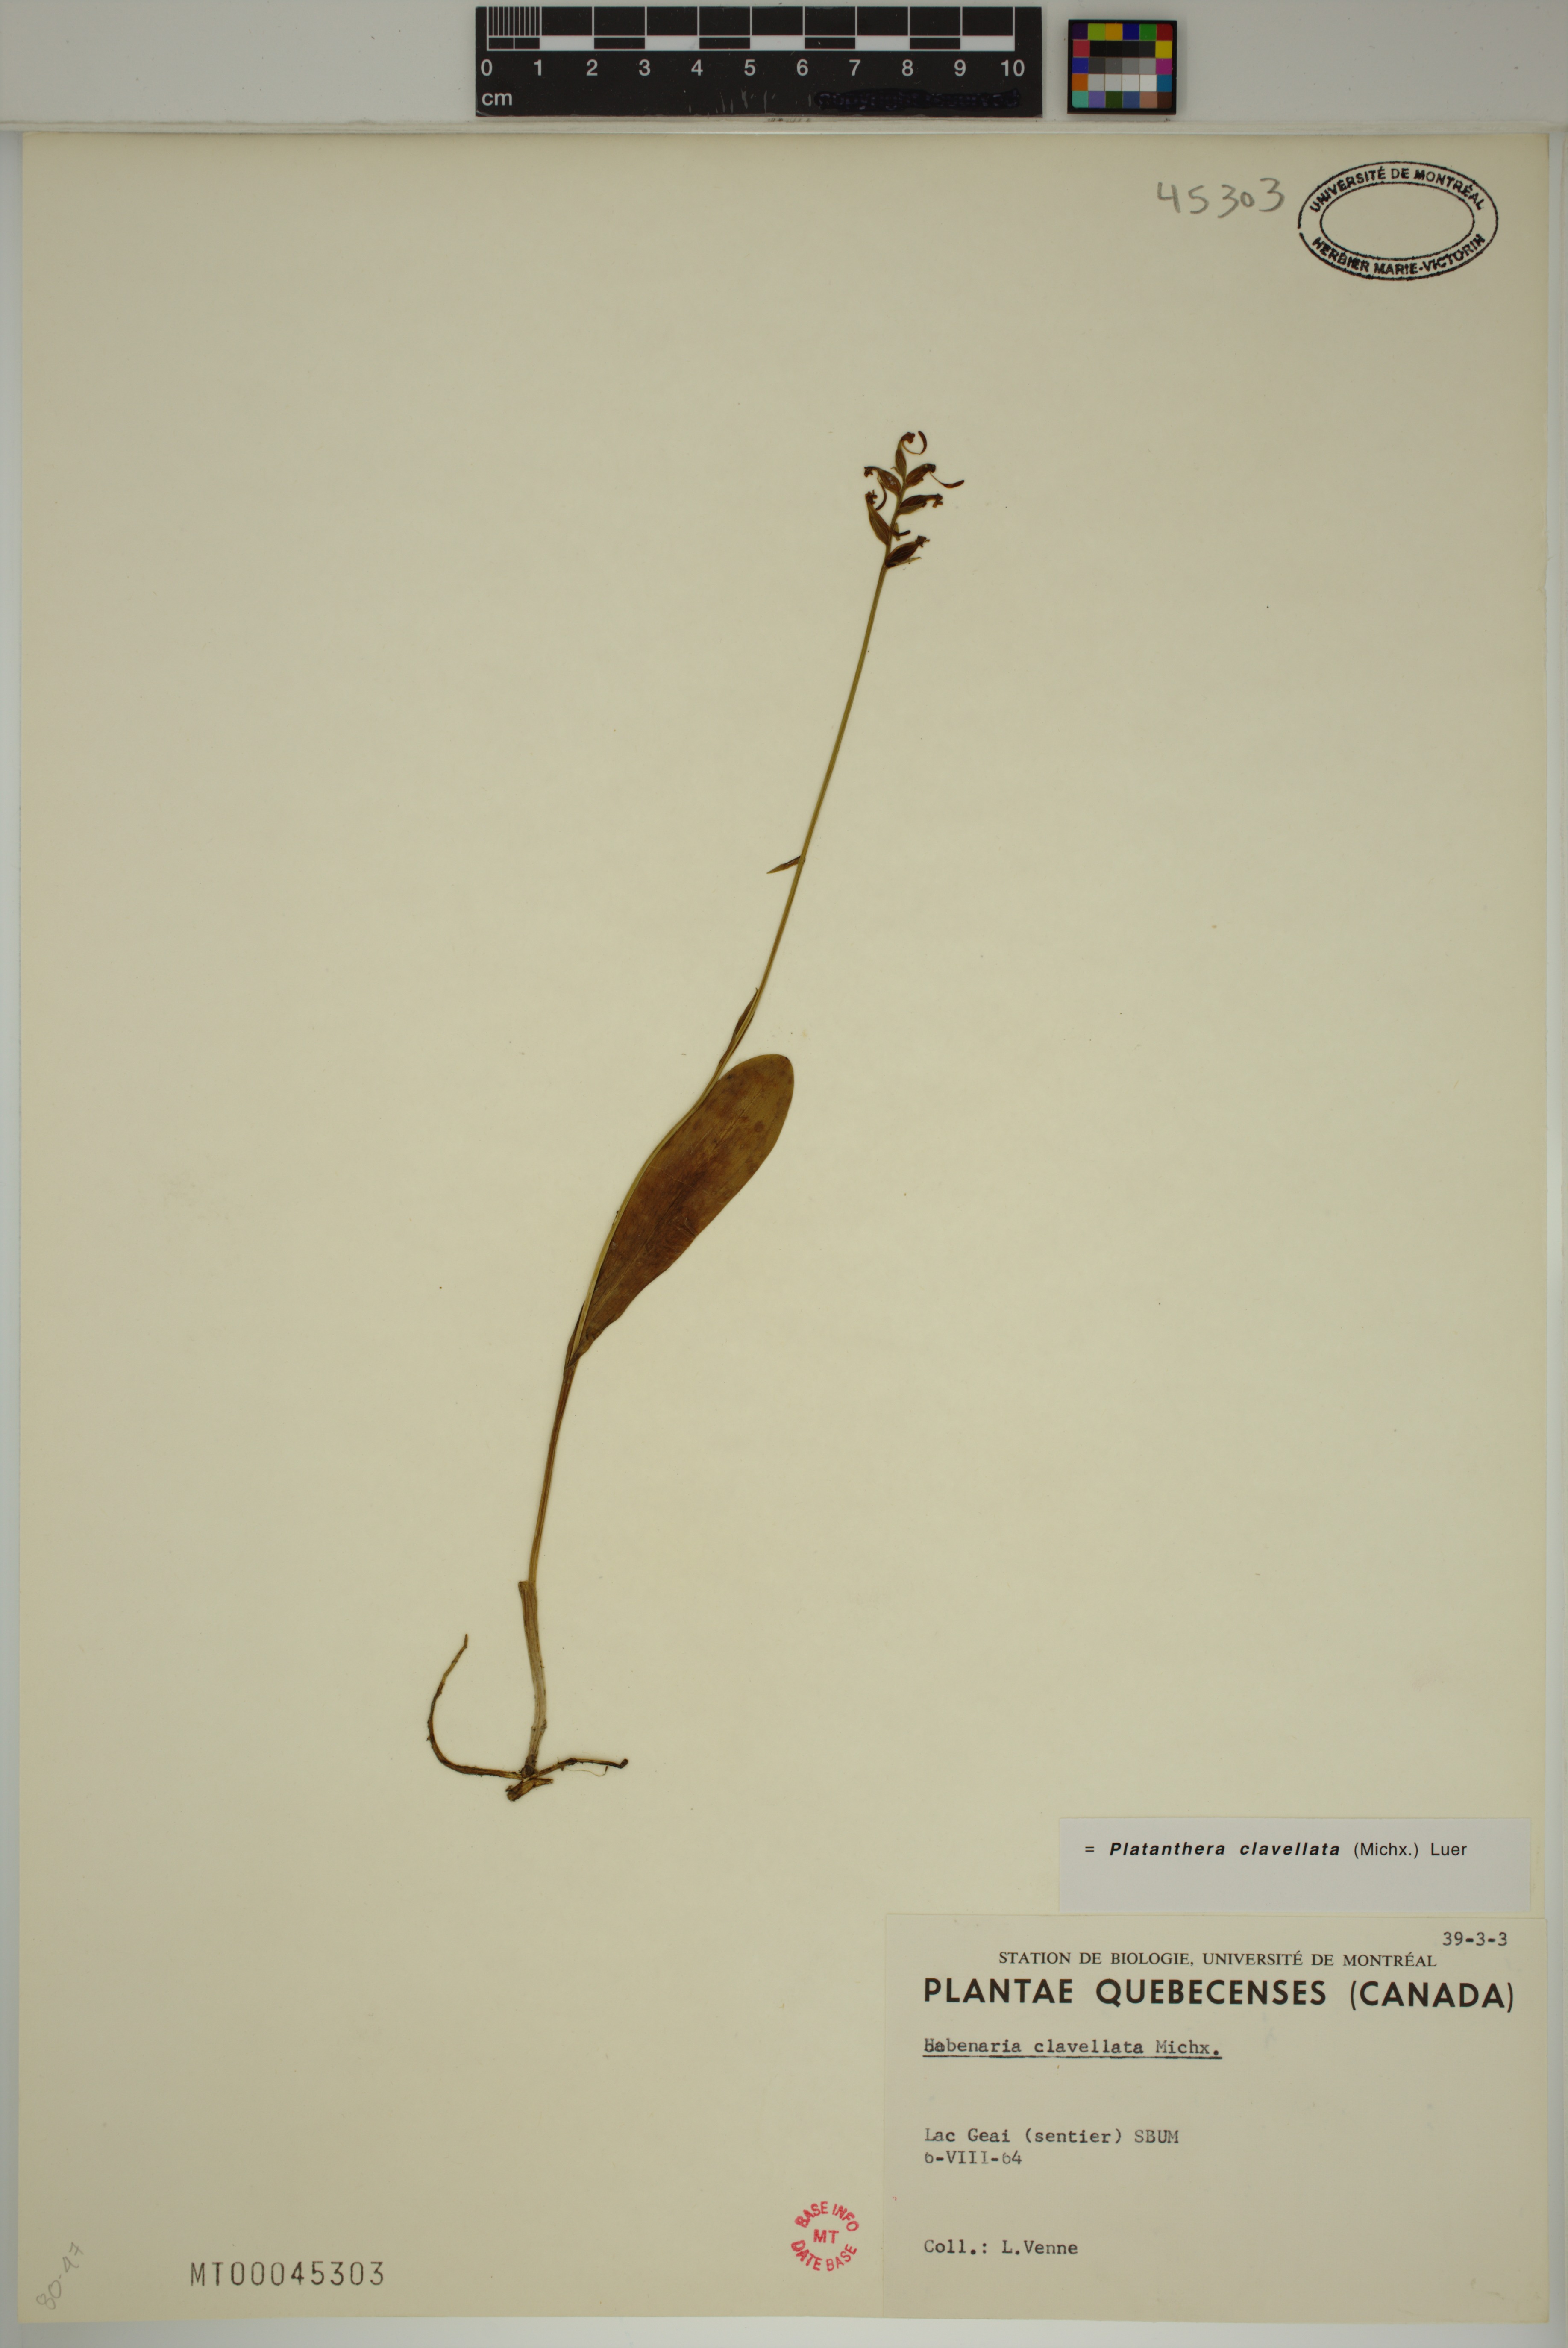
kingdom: Plantae
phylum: Tracheophyta
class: Liliopsida
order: Asparagales
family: Orchidaceae
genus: Platanthera
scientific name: Platanthera clavellata
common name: Club-spur orchid
